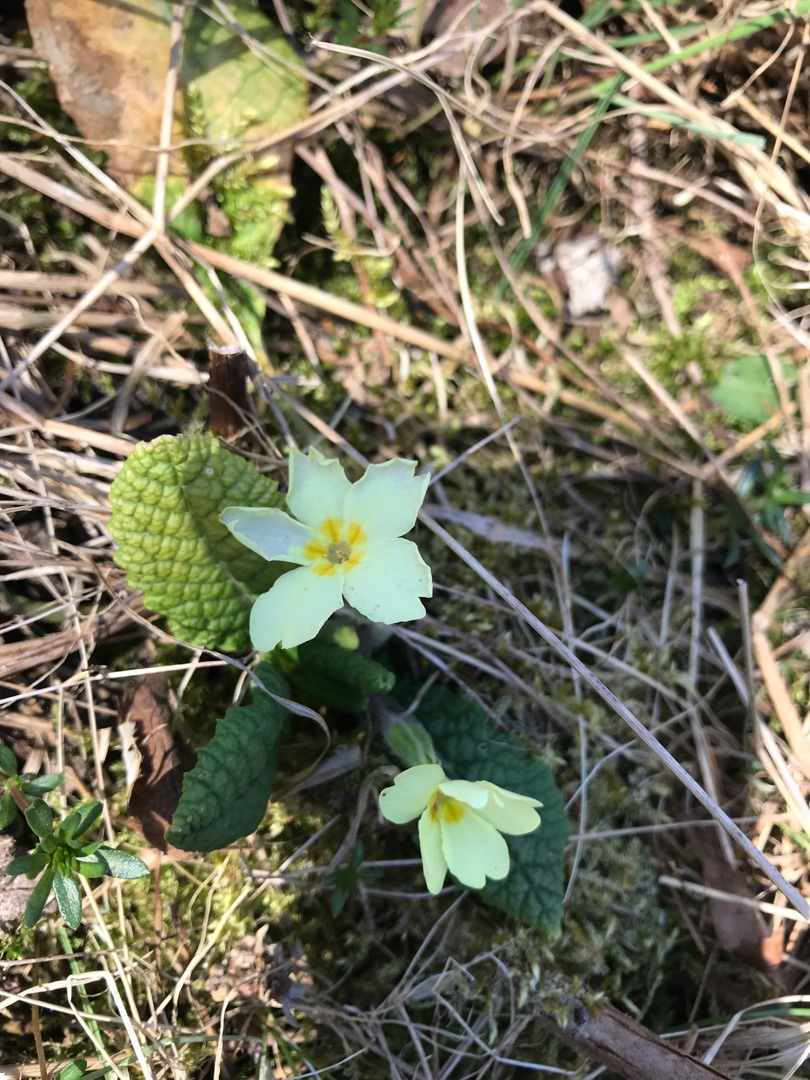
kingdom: Plantae
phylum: Tracheophyta
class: Magnoliopsida
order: Ericales
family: Primulaceae
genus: Primula
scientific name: Primula vulgaris
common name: Storblomstret kodriver
